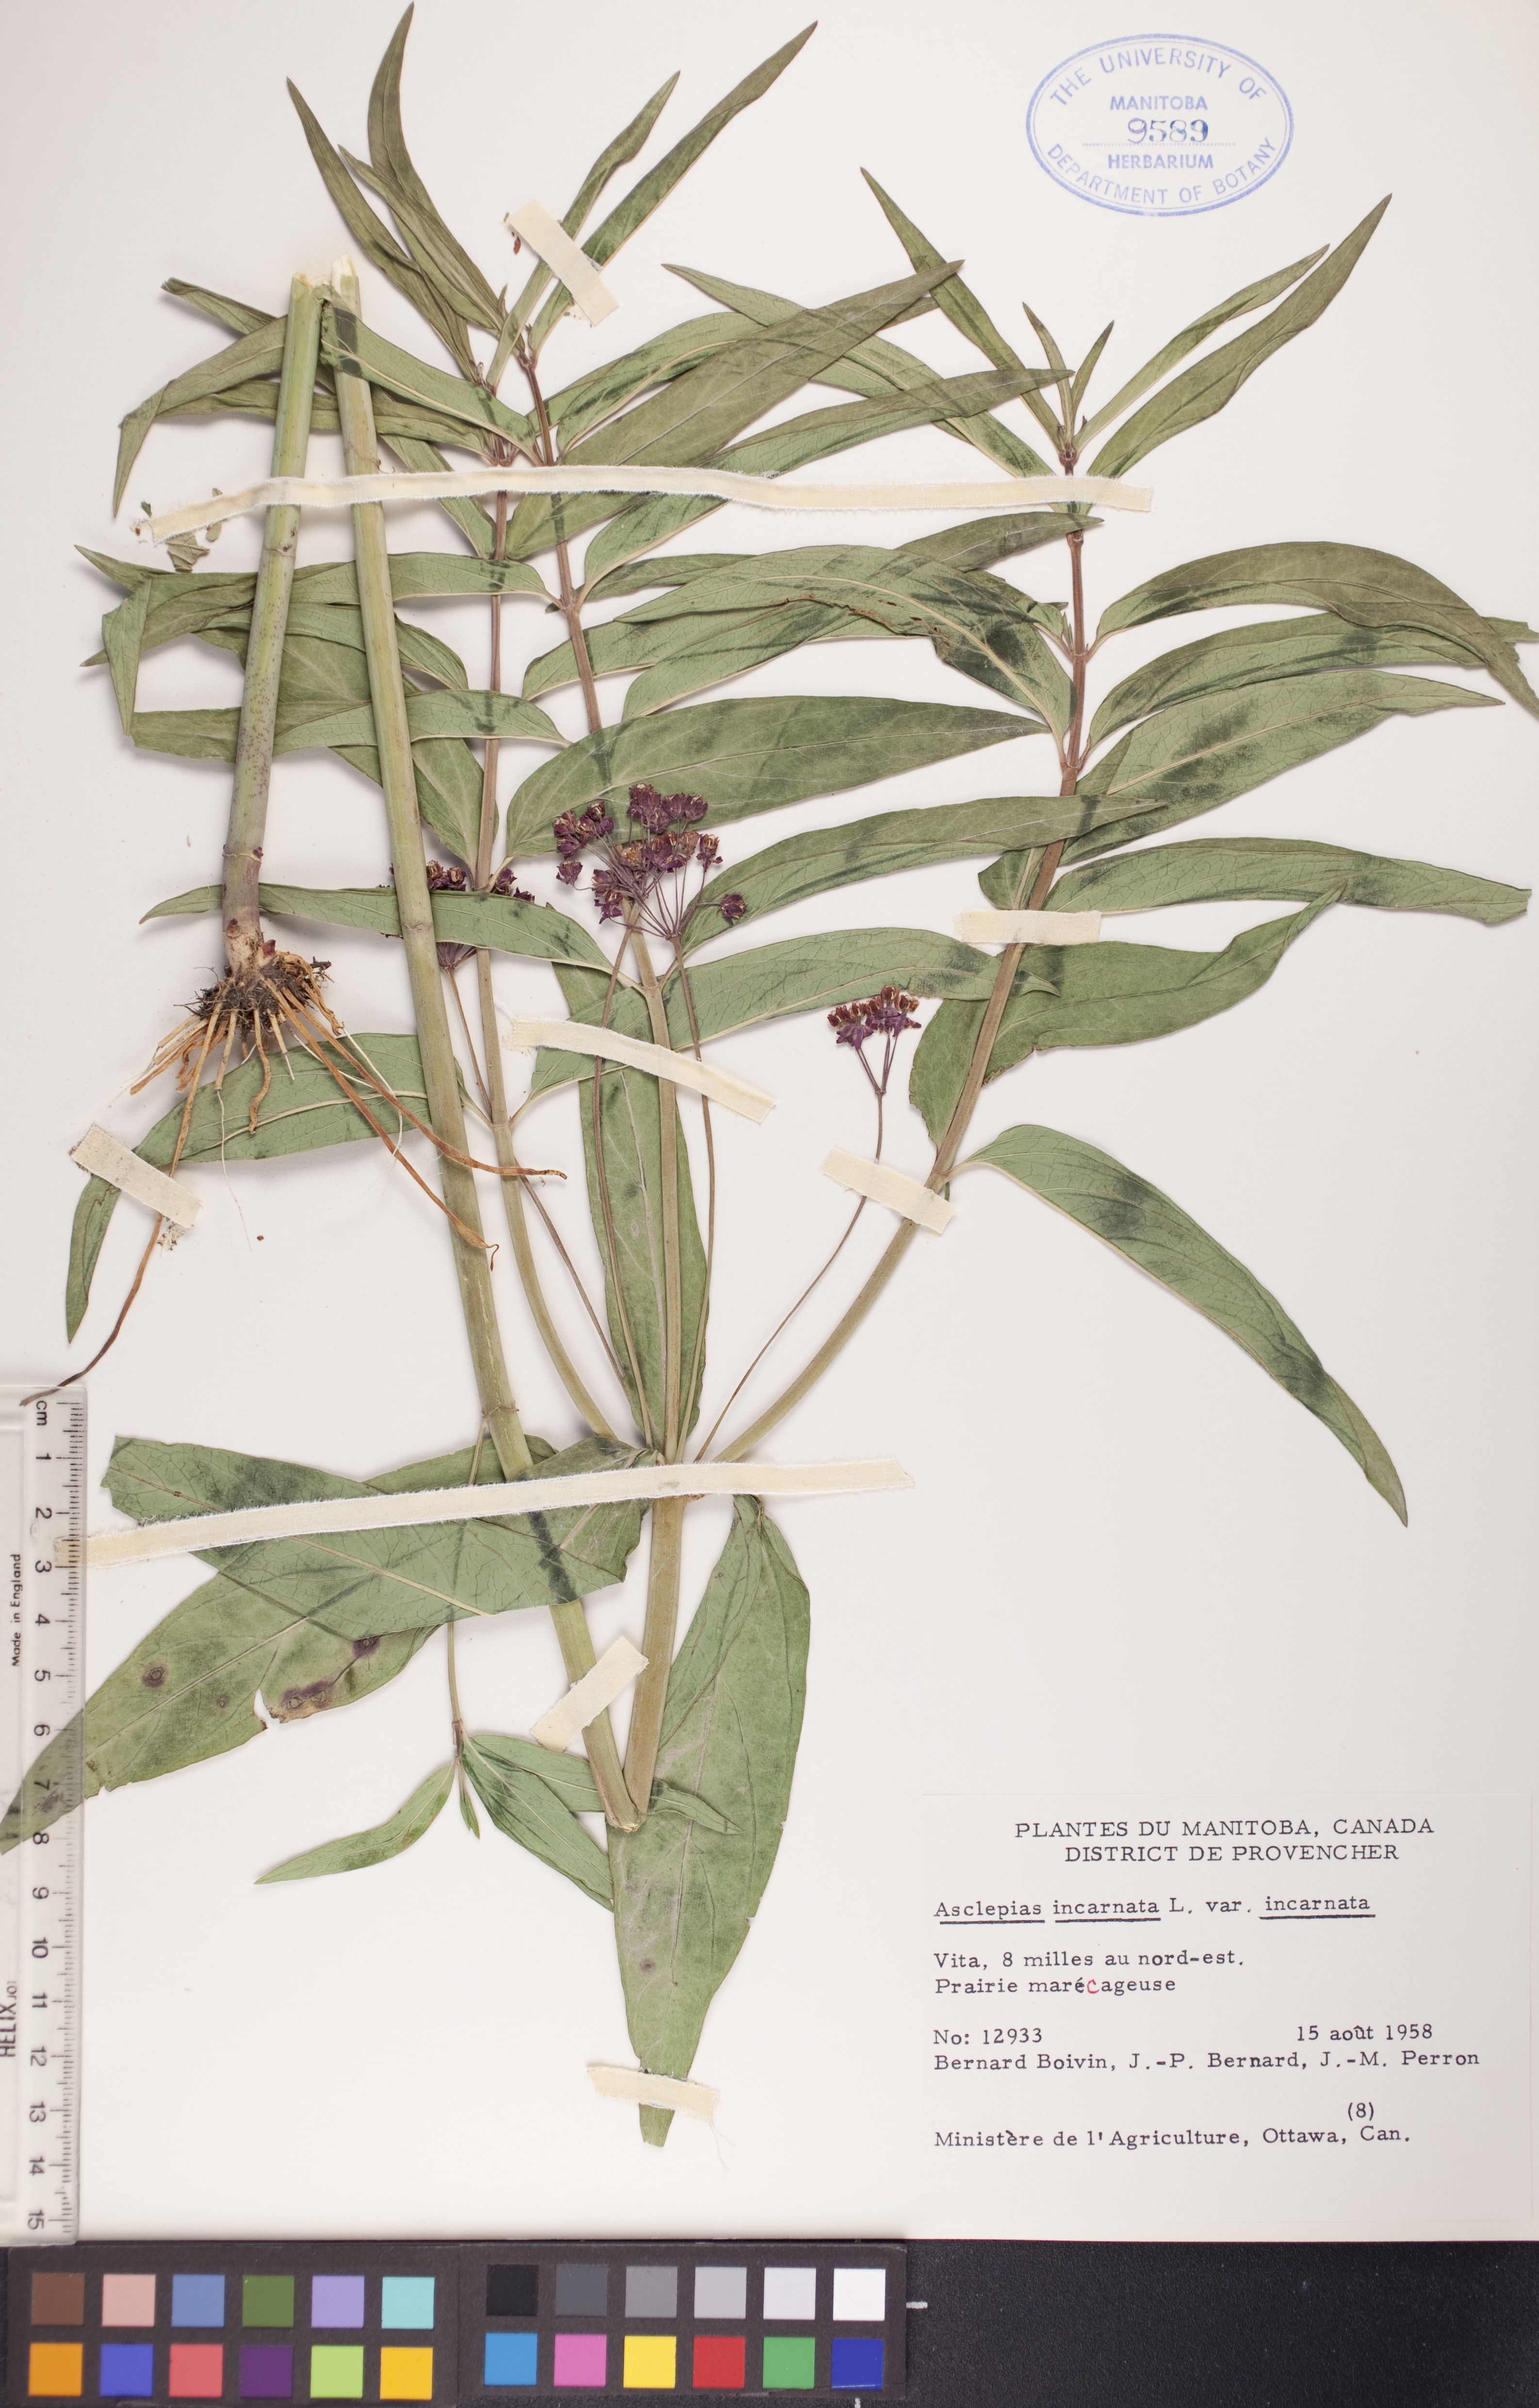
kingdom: Plantae
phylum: Tracheophyta
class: Magnoliopsida
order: Gentianales
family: Apocynaceae
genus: Asclepias
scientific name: Asclepias incarnata
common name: Swamp milkweed
